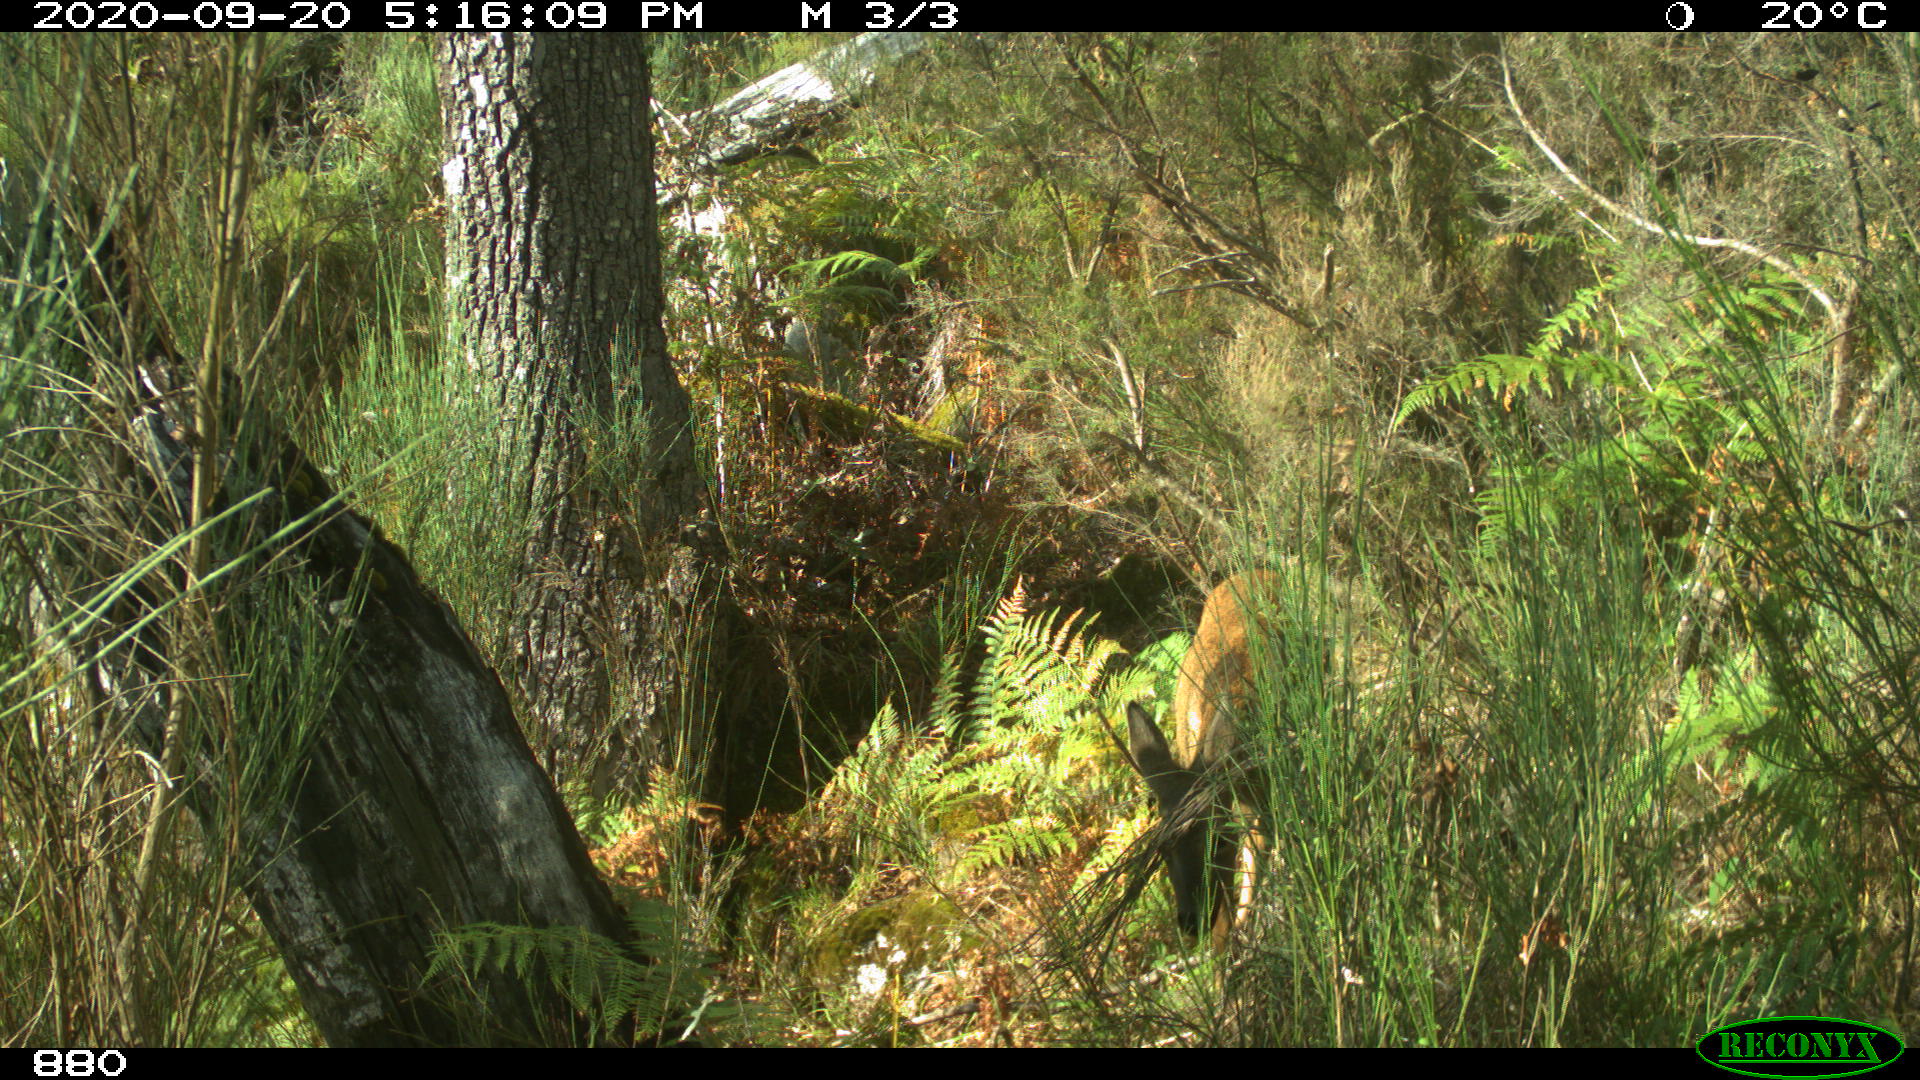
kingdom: Animalia
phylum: Chordata
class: Mammalia
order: Artiodactyla
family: Cervidae
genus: Capreolus
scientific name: Capreolus capreolus
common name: Western roe deer
